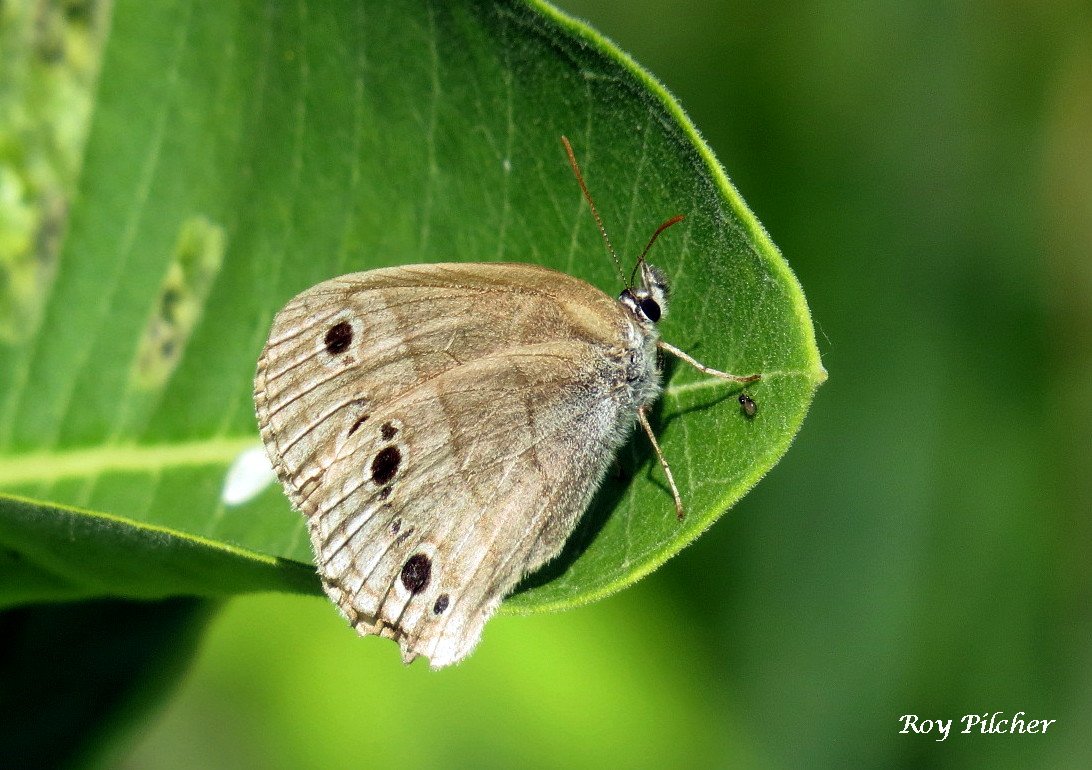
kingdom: Animalia
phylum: Arthropoda
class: Insecta
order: Lepidoptera
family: Nymphalidae
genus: Euptychia
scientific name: Euptychia cymela
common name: Little Wood Satyr
